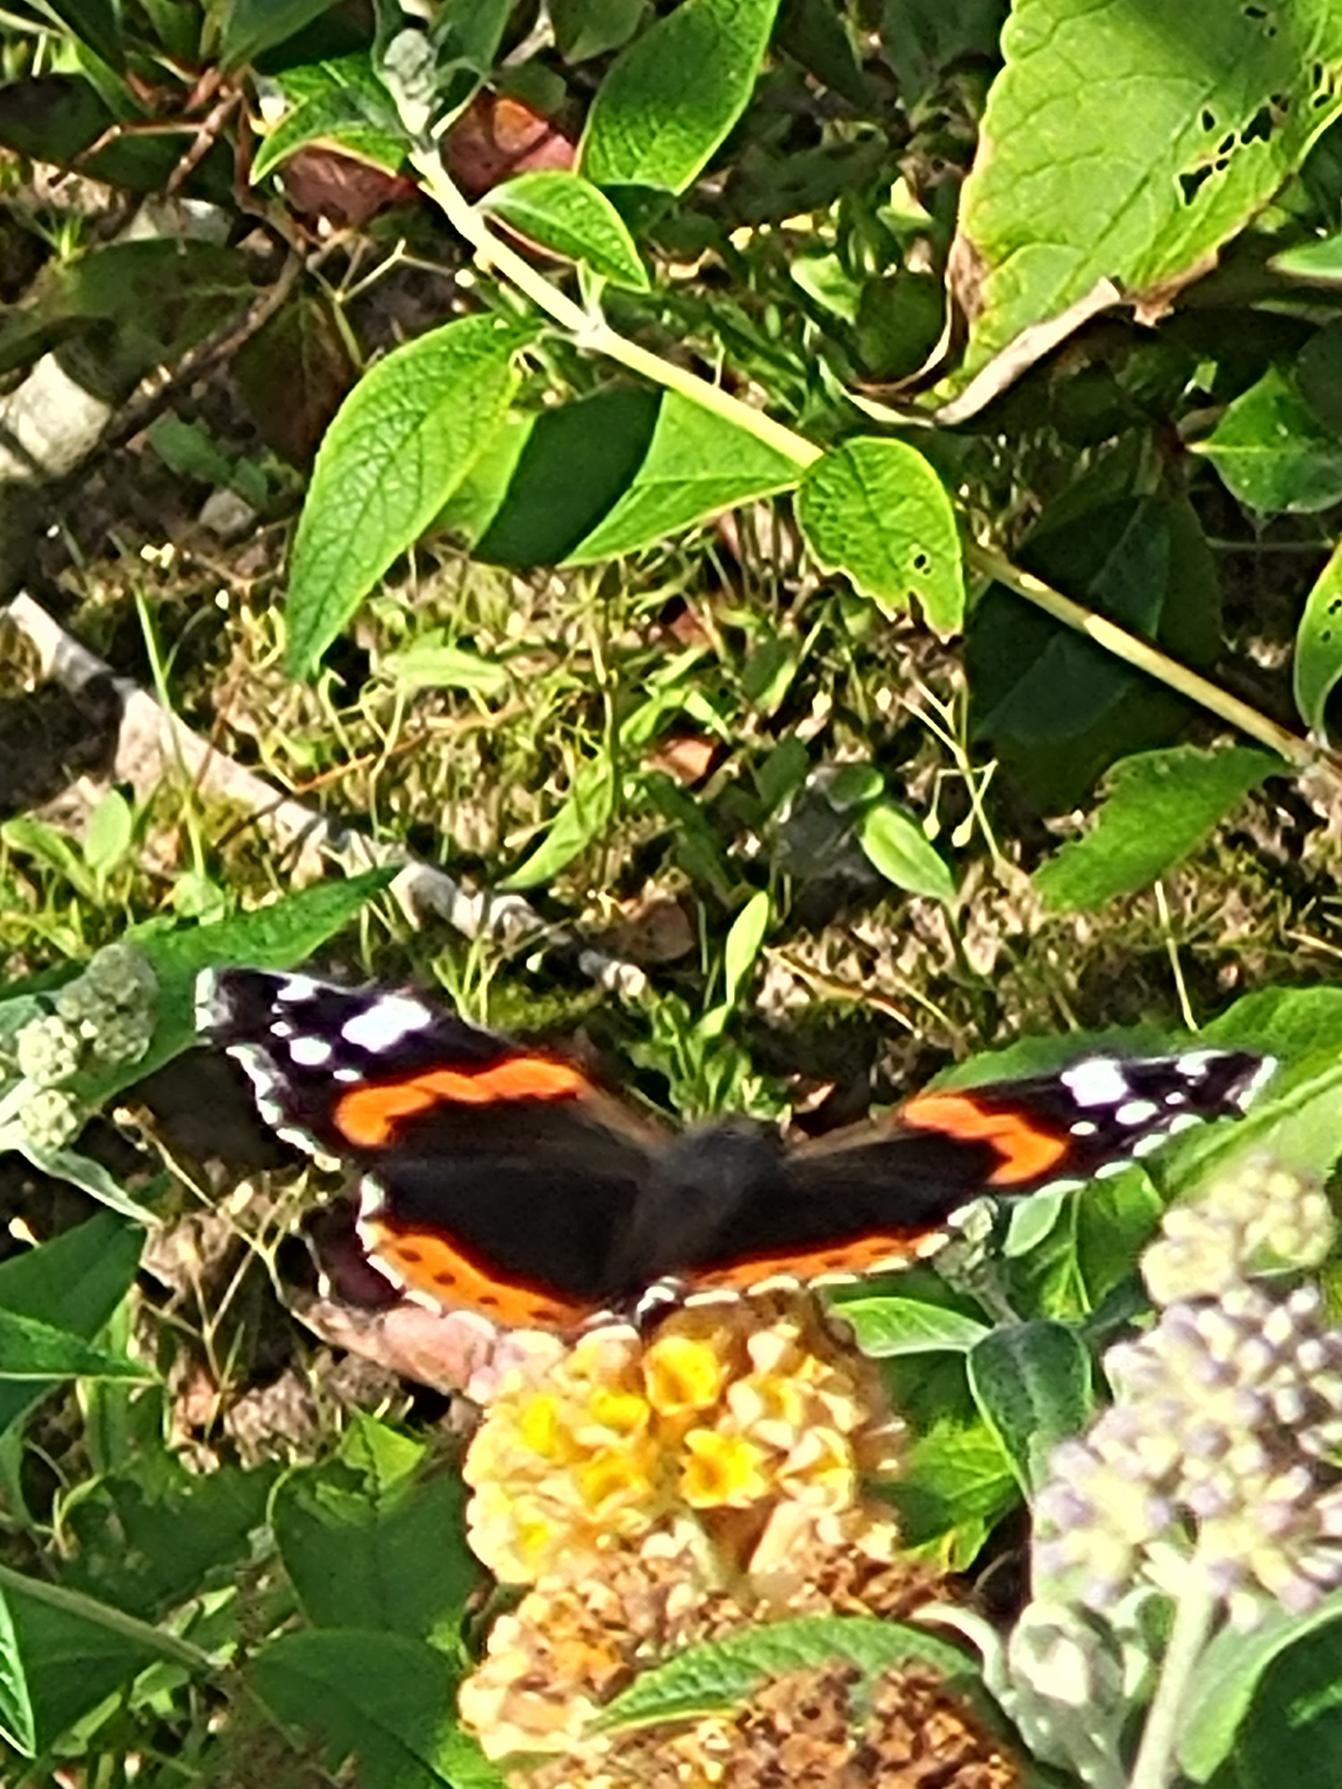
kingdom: Animalia
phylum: Arthropoda
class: Insecta
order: Lepidoptera
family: Nymphalidae
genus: Vanessa
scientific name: Vanessa atalanta
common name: Admiral
